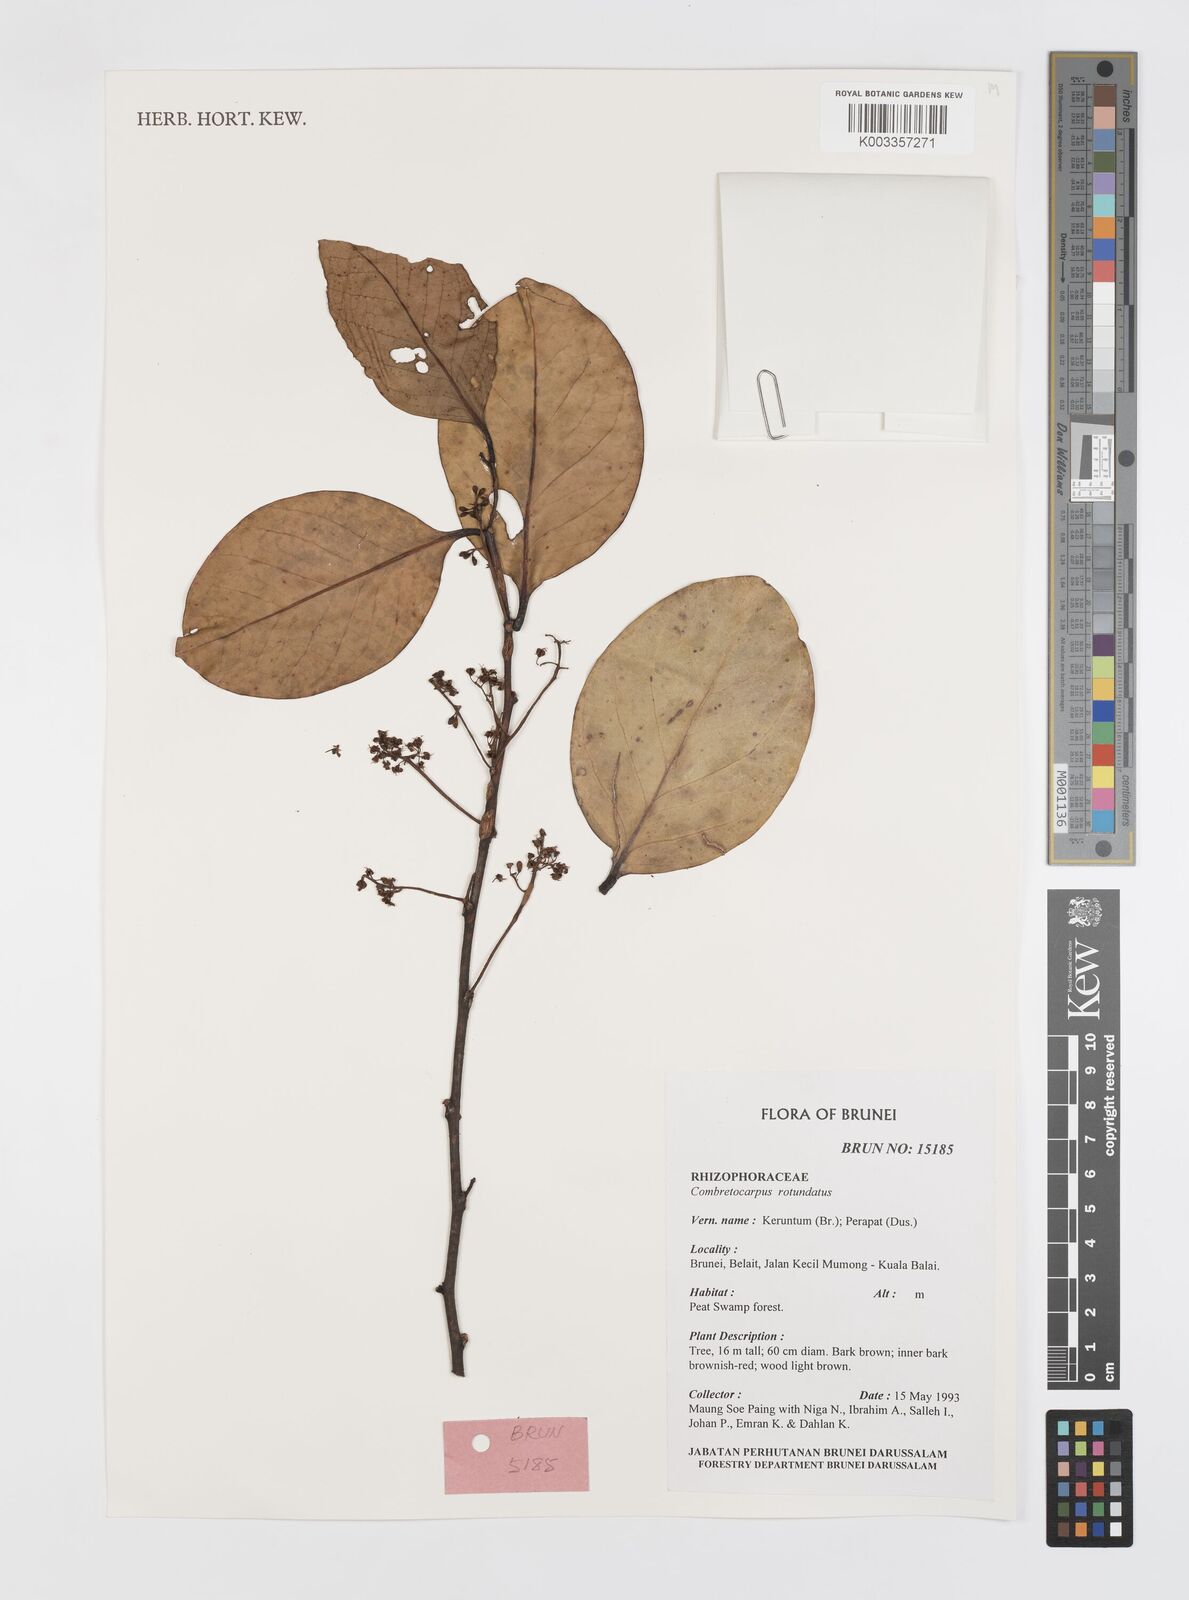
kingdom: Plantae
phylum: Tracheophyta
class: Magnoliopsida
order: Cucurbitales
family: Anisophylleaceae
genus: Combretocarpus
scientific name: Combretocarpus rotundatus
